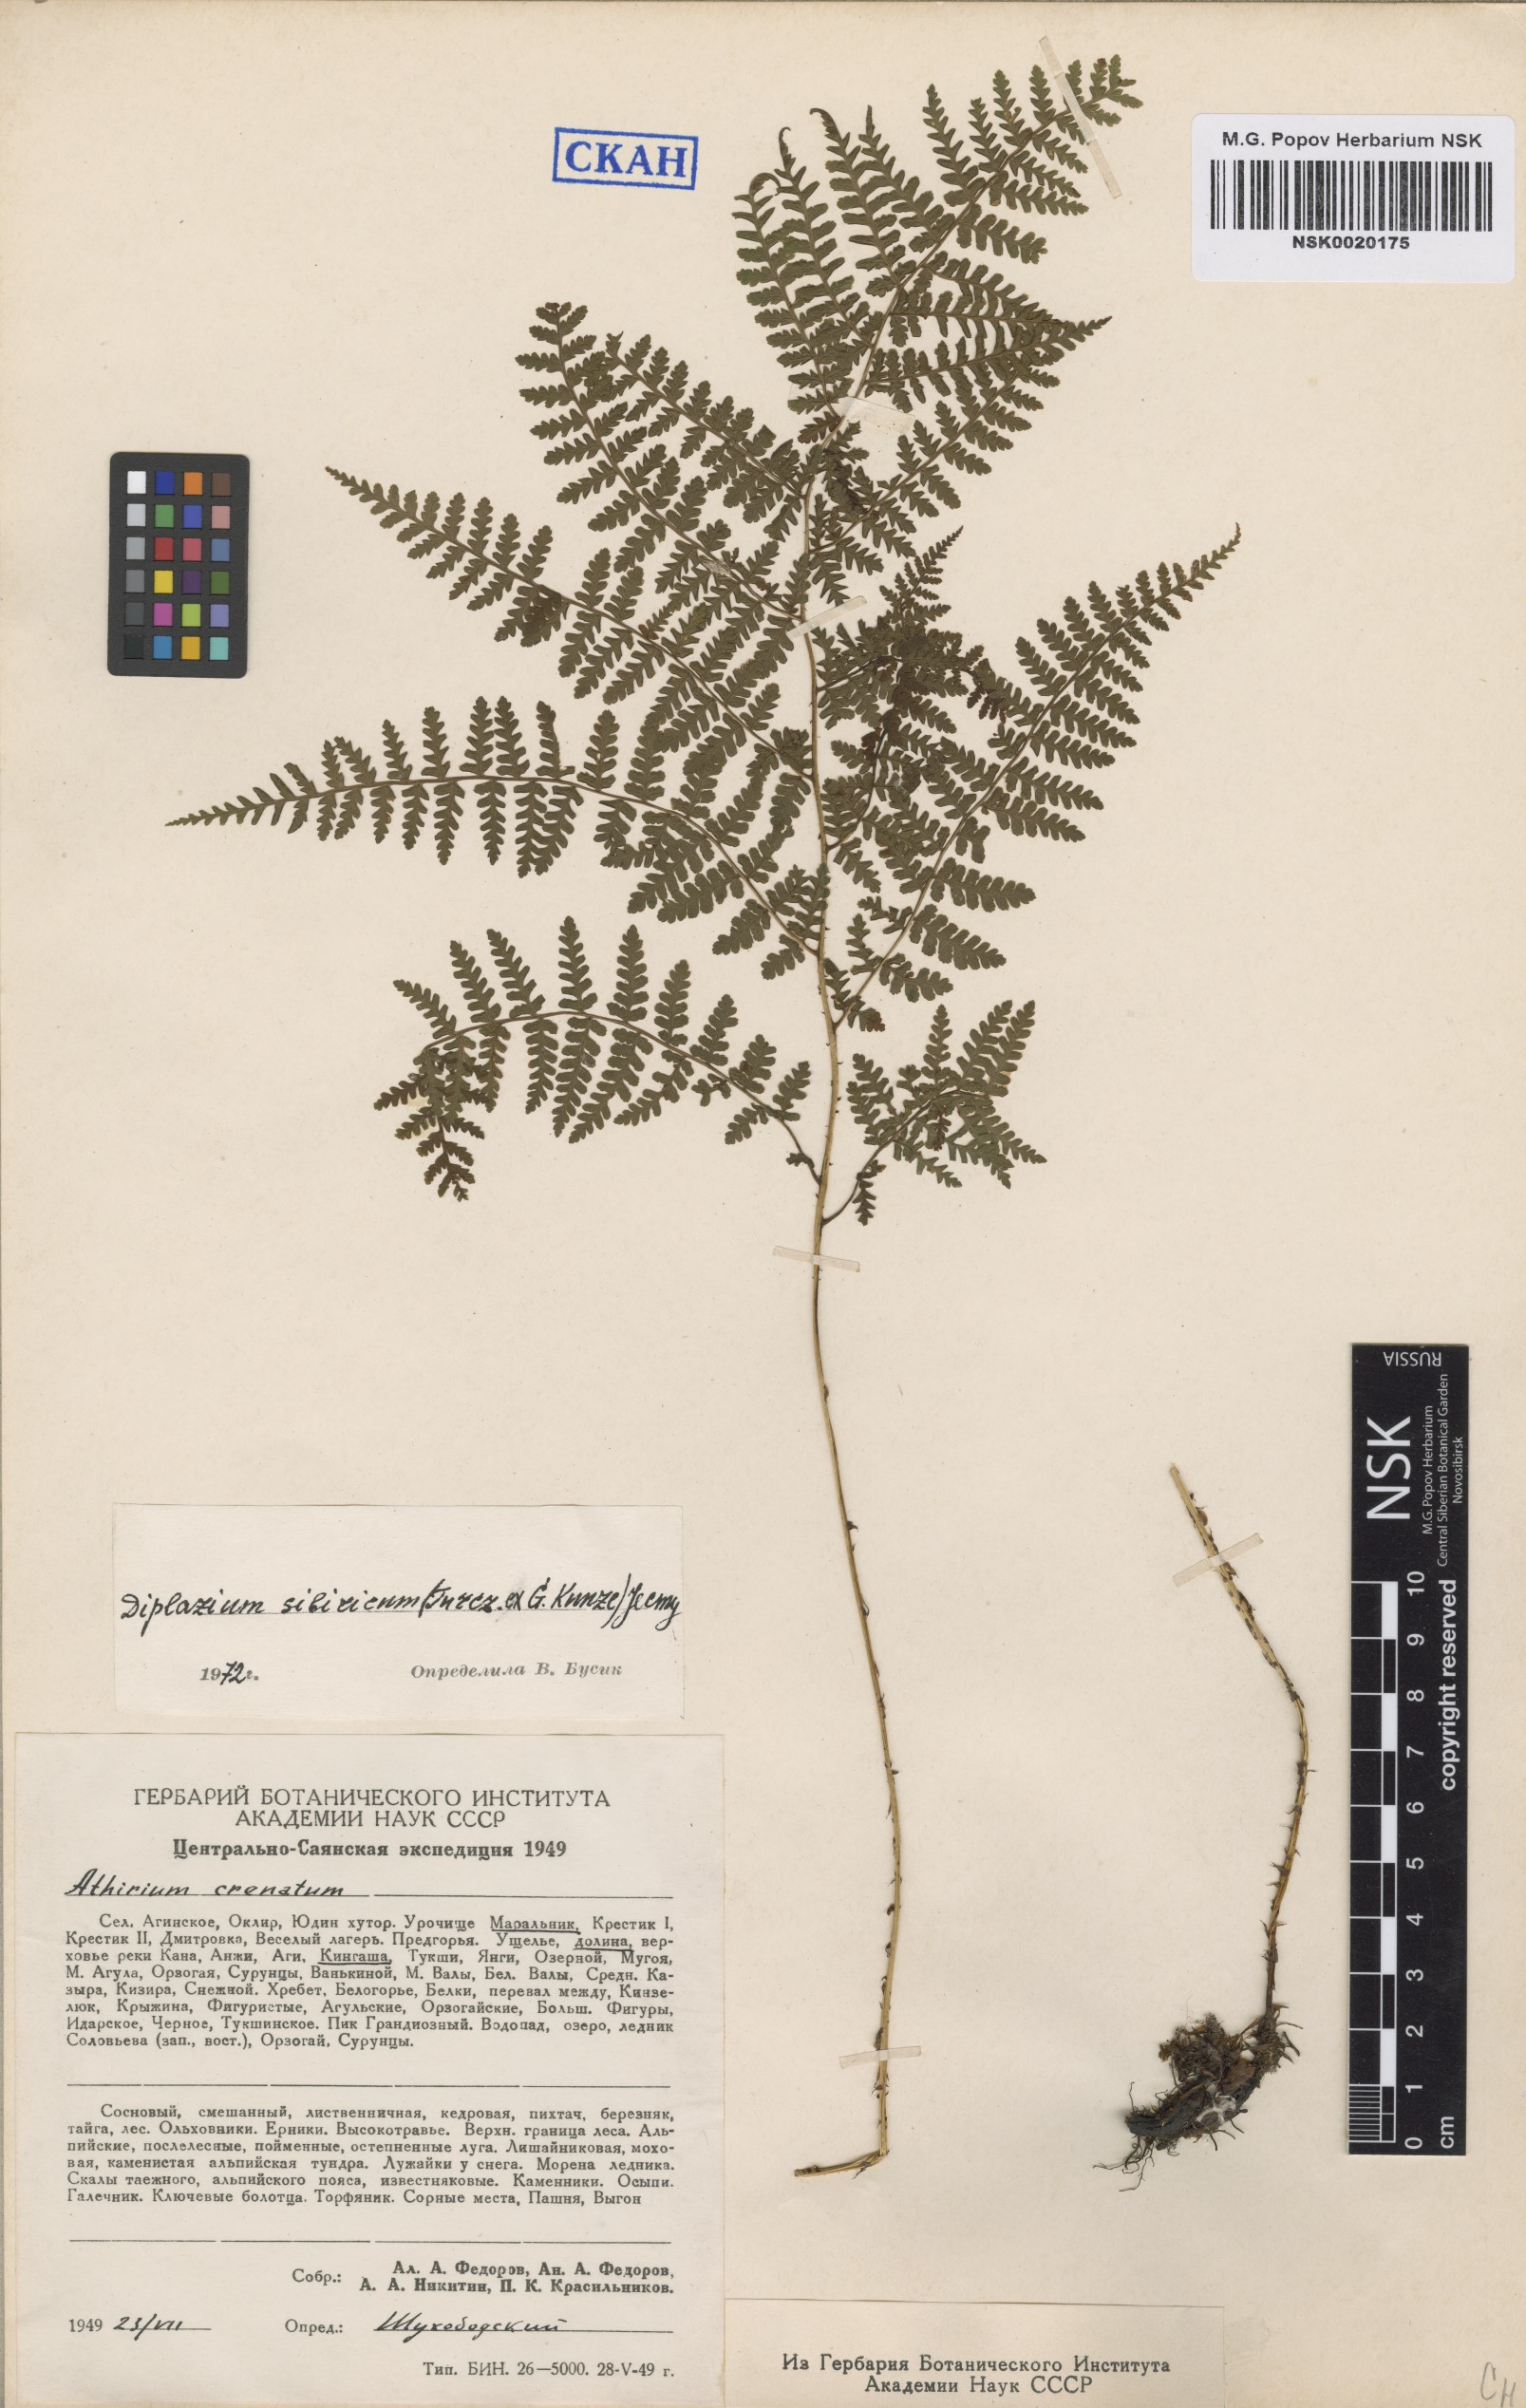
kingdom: Plantae
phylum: Tracheophyta
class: Polypodiopsida
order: Polypodiales
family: Athyriaceae
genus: Diplazium
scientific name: Diplazium sibiricum
